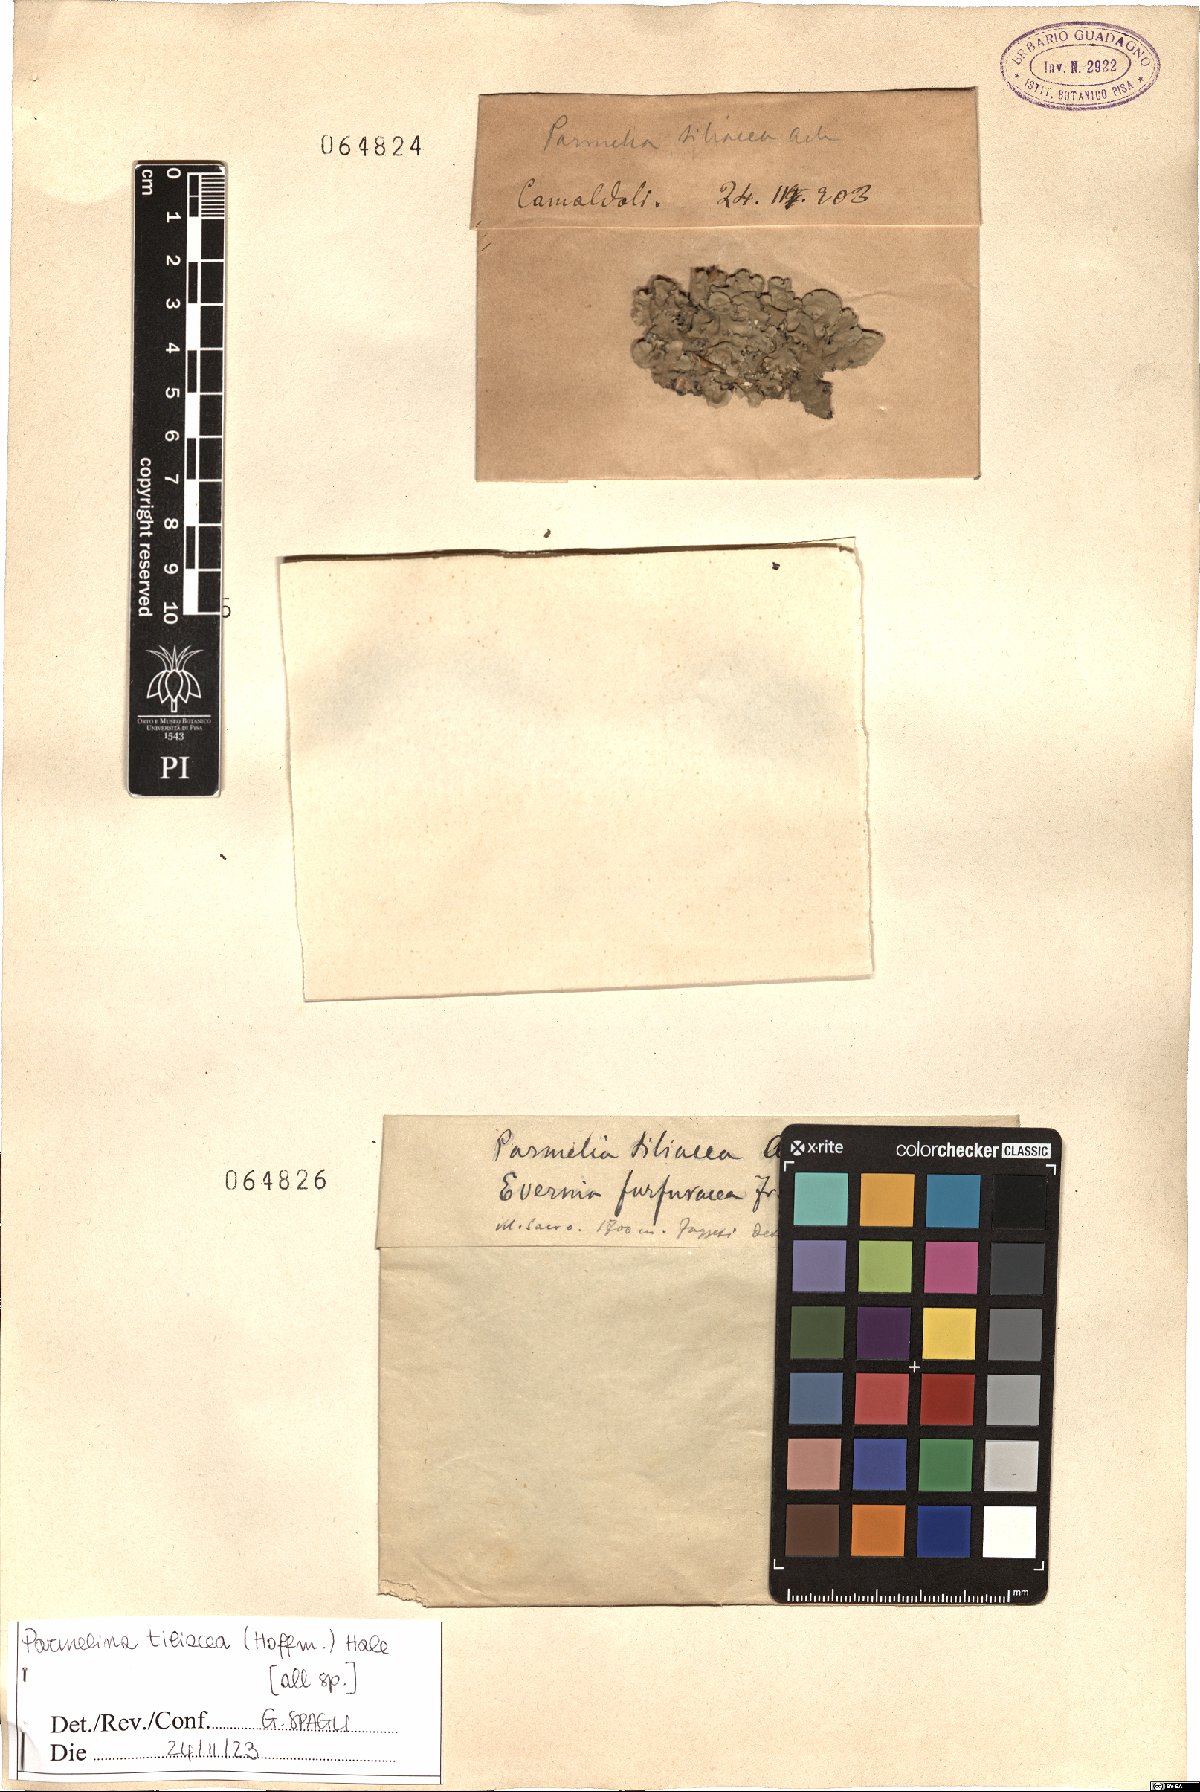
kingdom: Fungi
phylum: Ascomycota
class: Lecanoromycetes
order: Lecanorales
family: Parmeliaceae
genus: Parmelina
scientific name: Parmelina tiliacea
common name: Linden shield lichen
